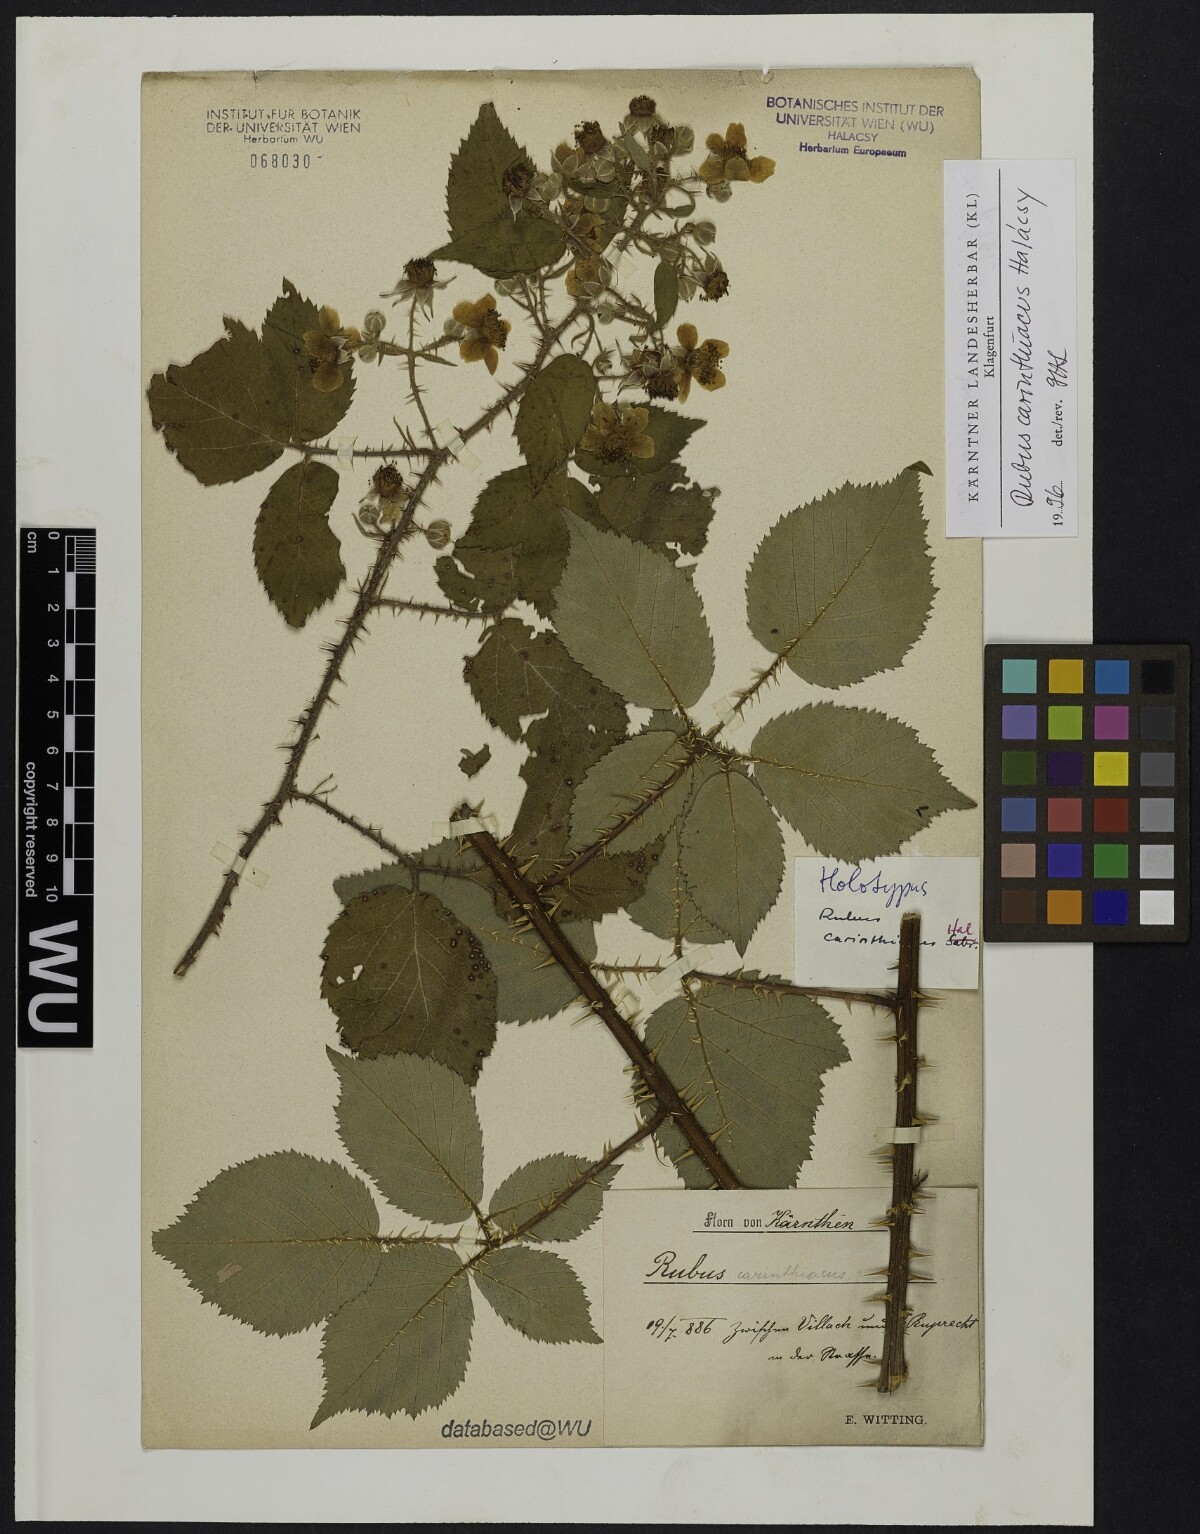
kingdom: Plantae
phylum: Tracheophyta
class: Magnoliopsida
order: Rosales
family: Rosaceae
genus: Rubus
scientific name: Rubus carinthiacus
